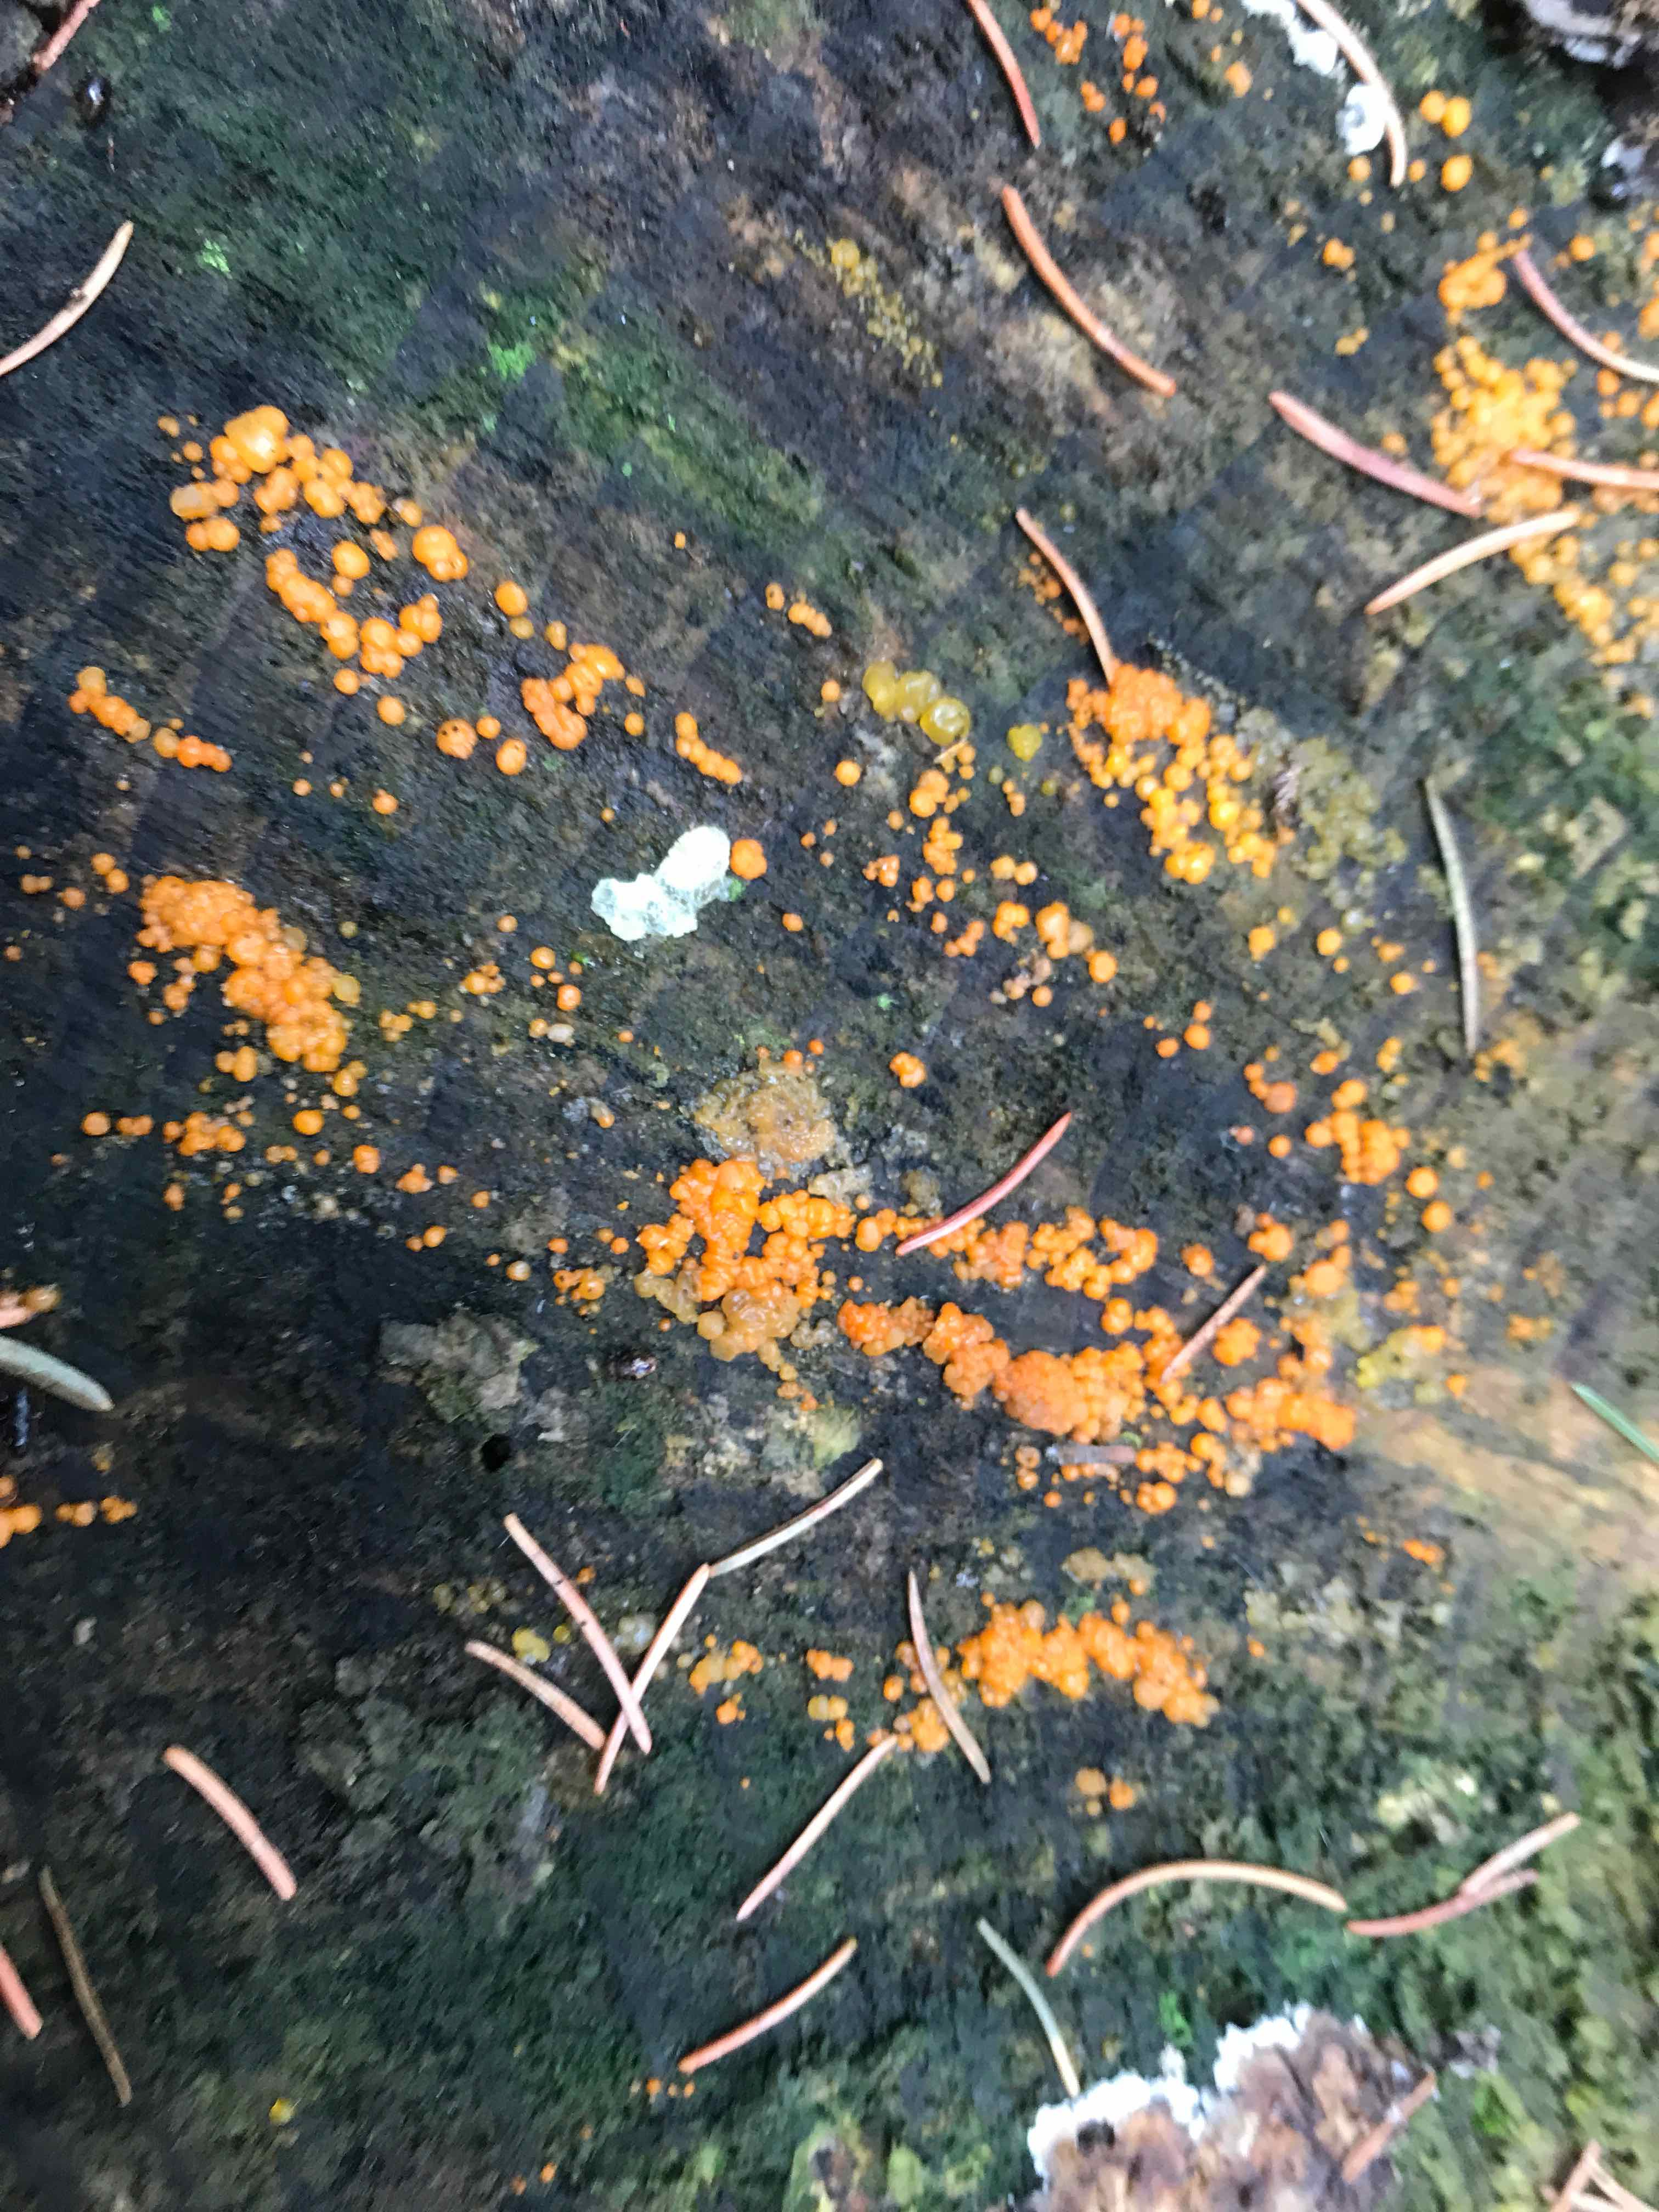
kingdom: Fungi
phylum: Basidiomycota
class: Dacrymycetes
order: Dacrymycetales
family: Dacrymycetaceae
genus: Dacrymyces
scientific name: Dacrymyces stillatus
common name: almindelig tåresvamp
